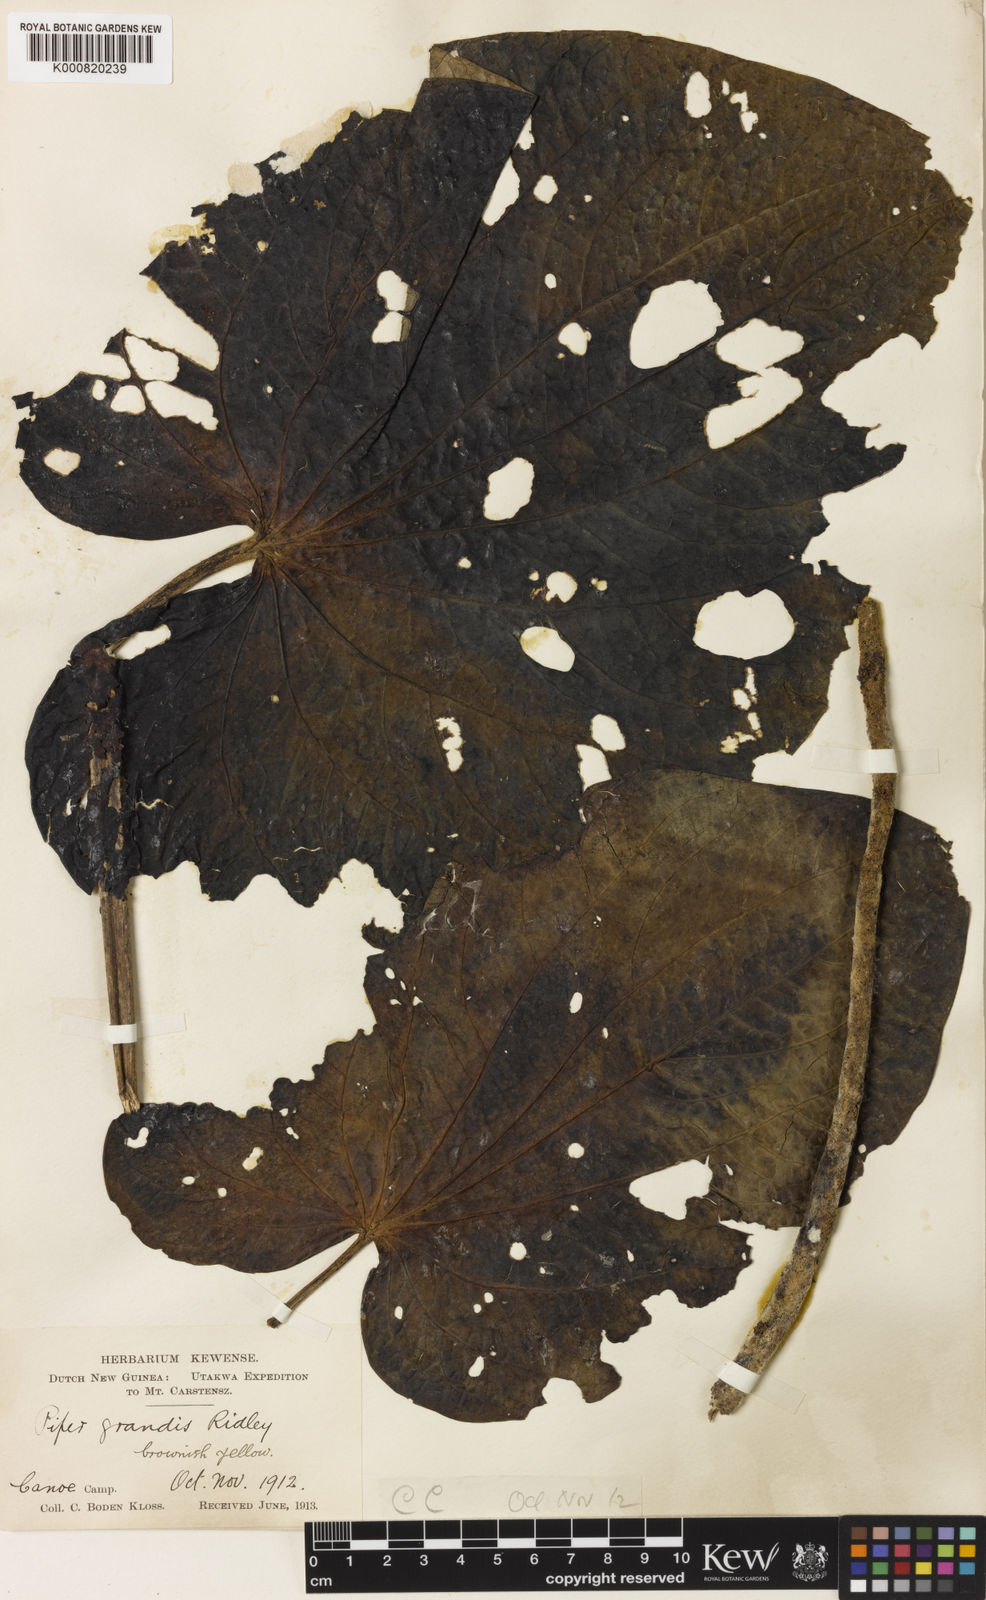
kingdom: Plantae
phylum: Tracheophyta
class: Magnoliopsida
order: Piperales
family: Piperaceae
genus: Piper
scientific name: Piper
